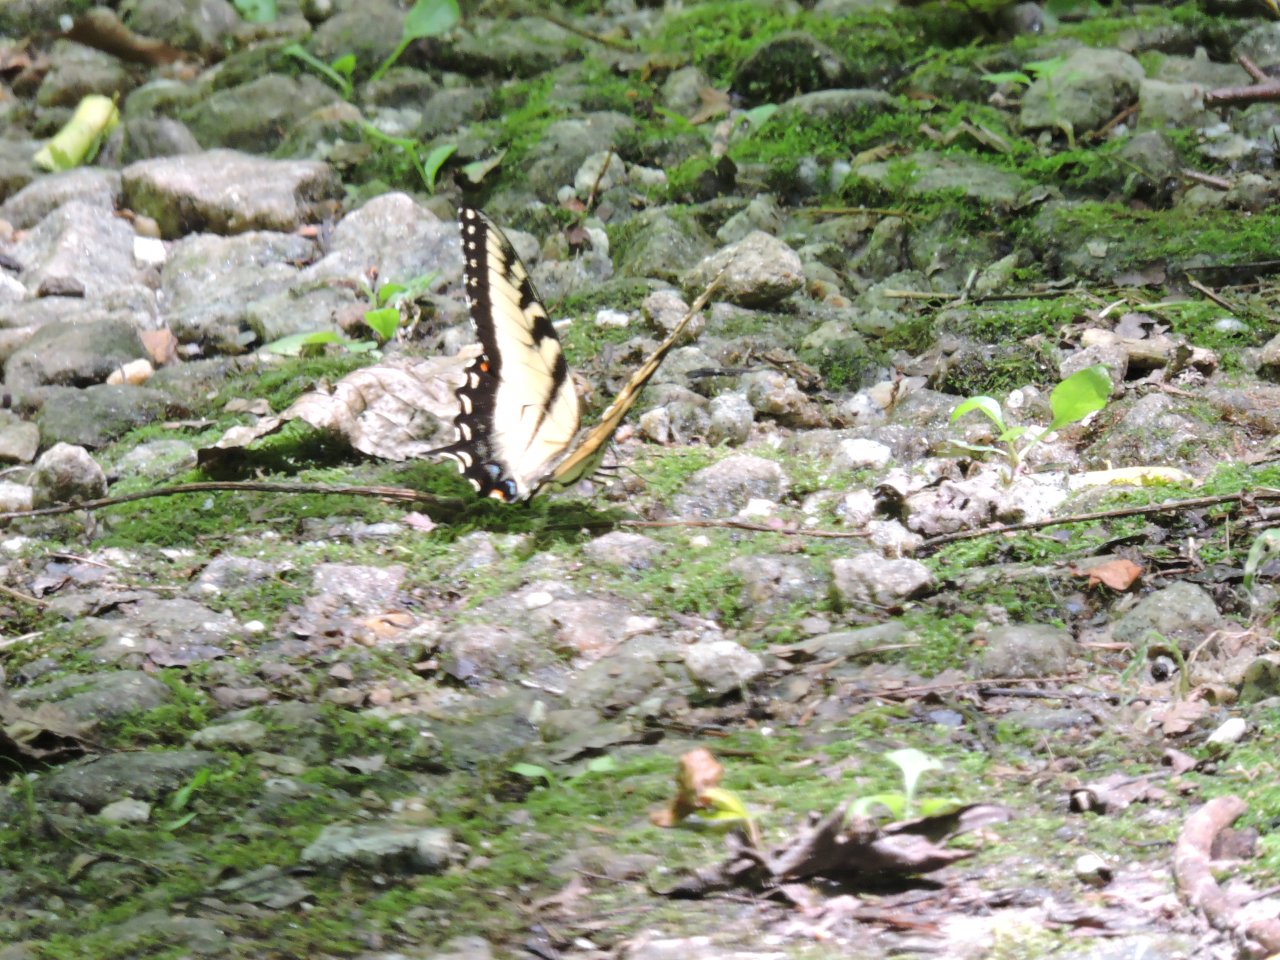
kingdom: Animalia
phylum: Arthropoda
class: Insecta
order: Lepidoptera
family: Papilionidae
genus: Pterourus
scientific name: Pterourus glaucus
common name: Eastern Tiger Swallowtail
